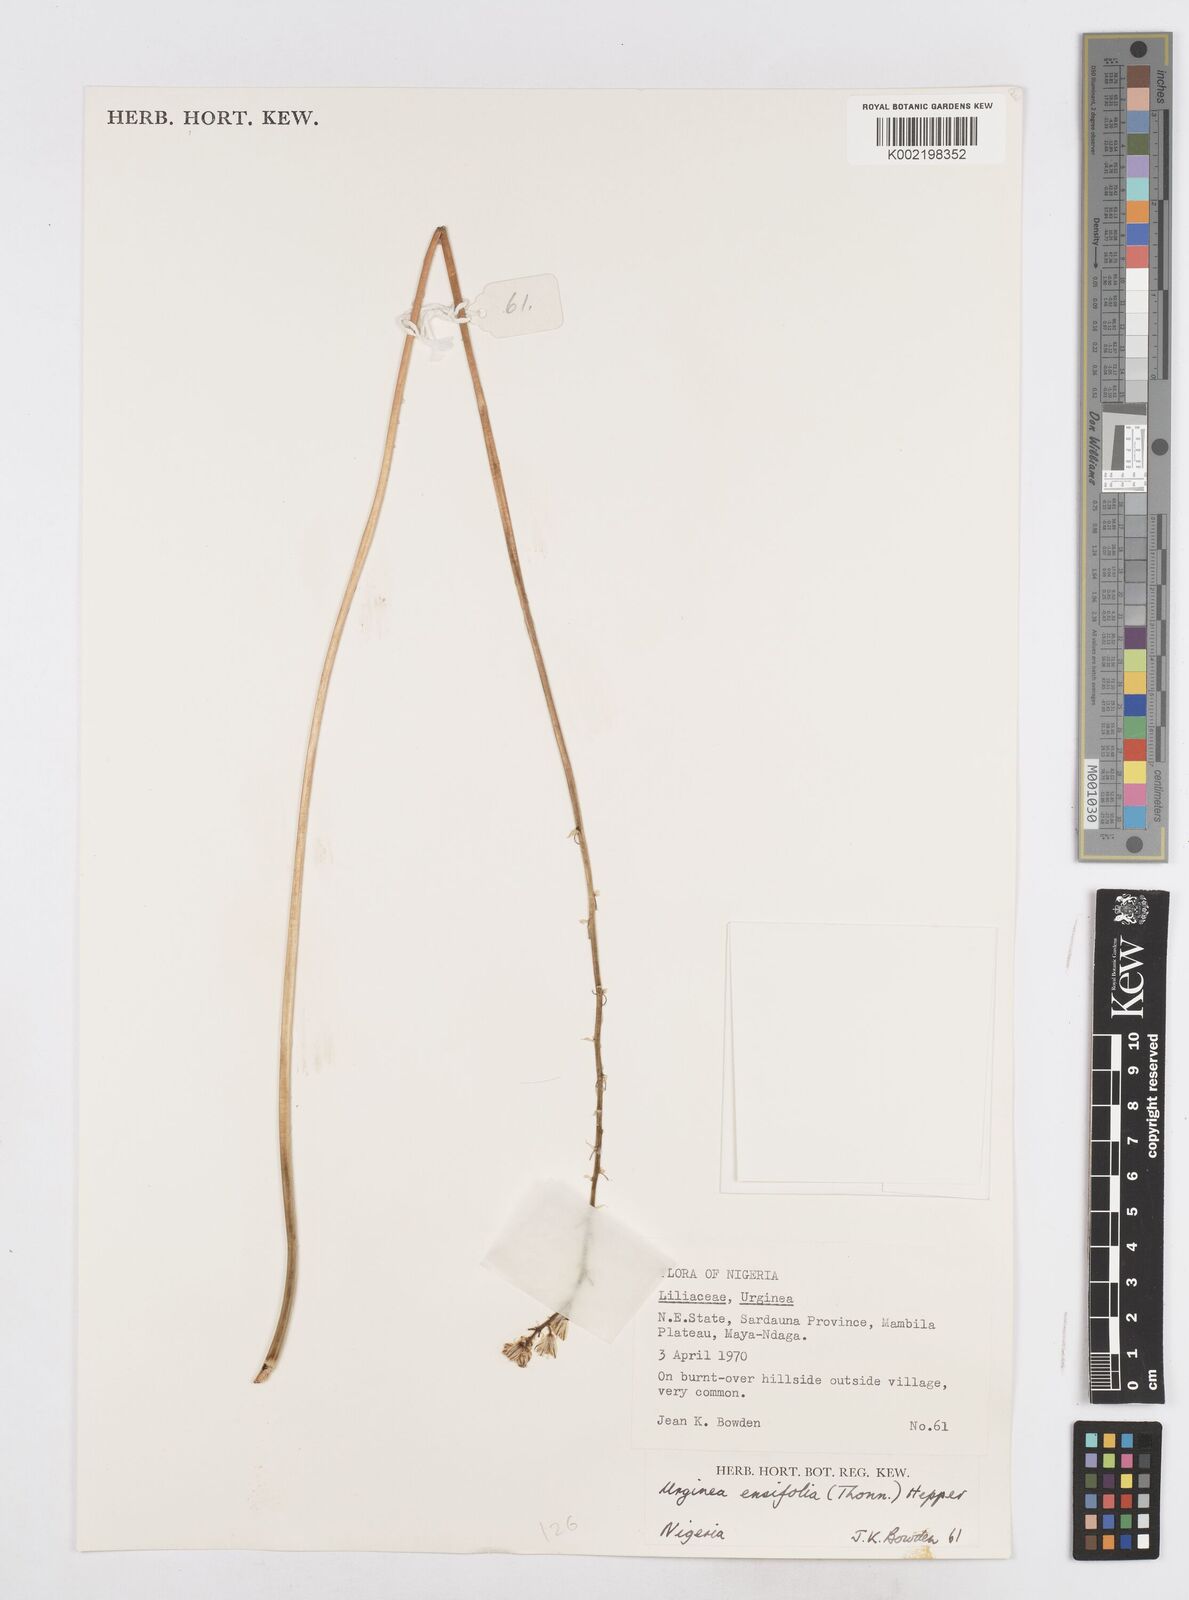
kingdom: Plantae
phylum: Tracheophyta
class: Liliopsida
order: Asparagales
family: Asparagaceae
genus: Ledebouria
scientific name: Ledebouria ensifolia
